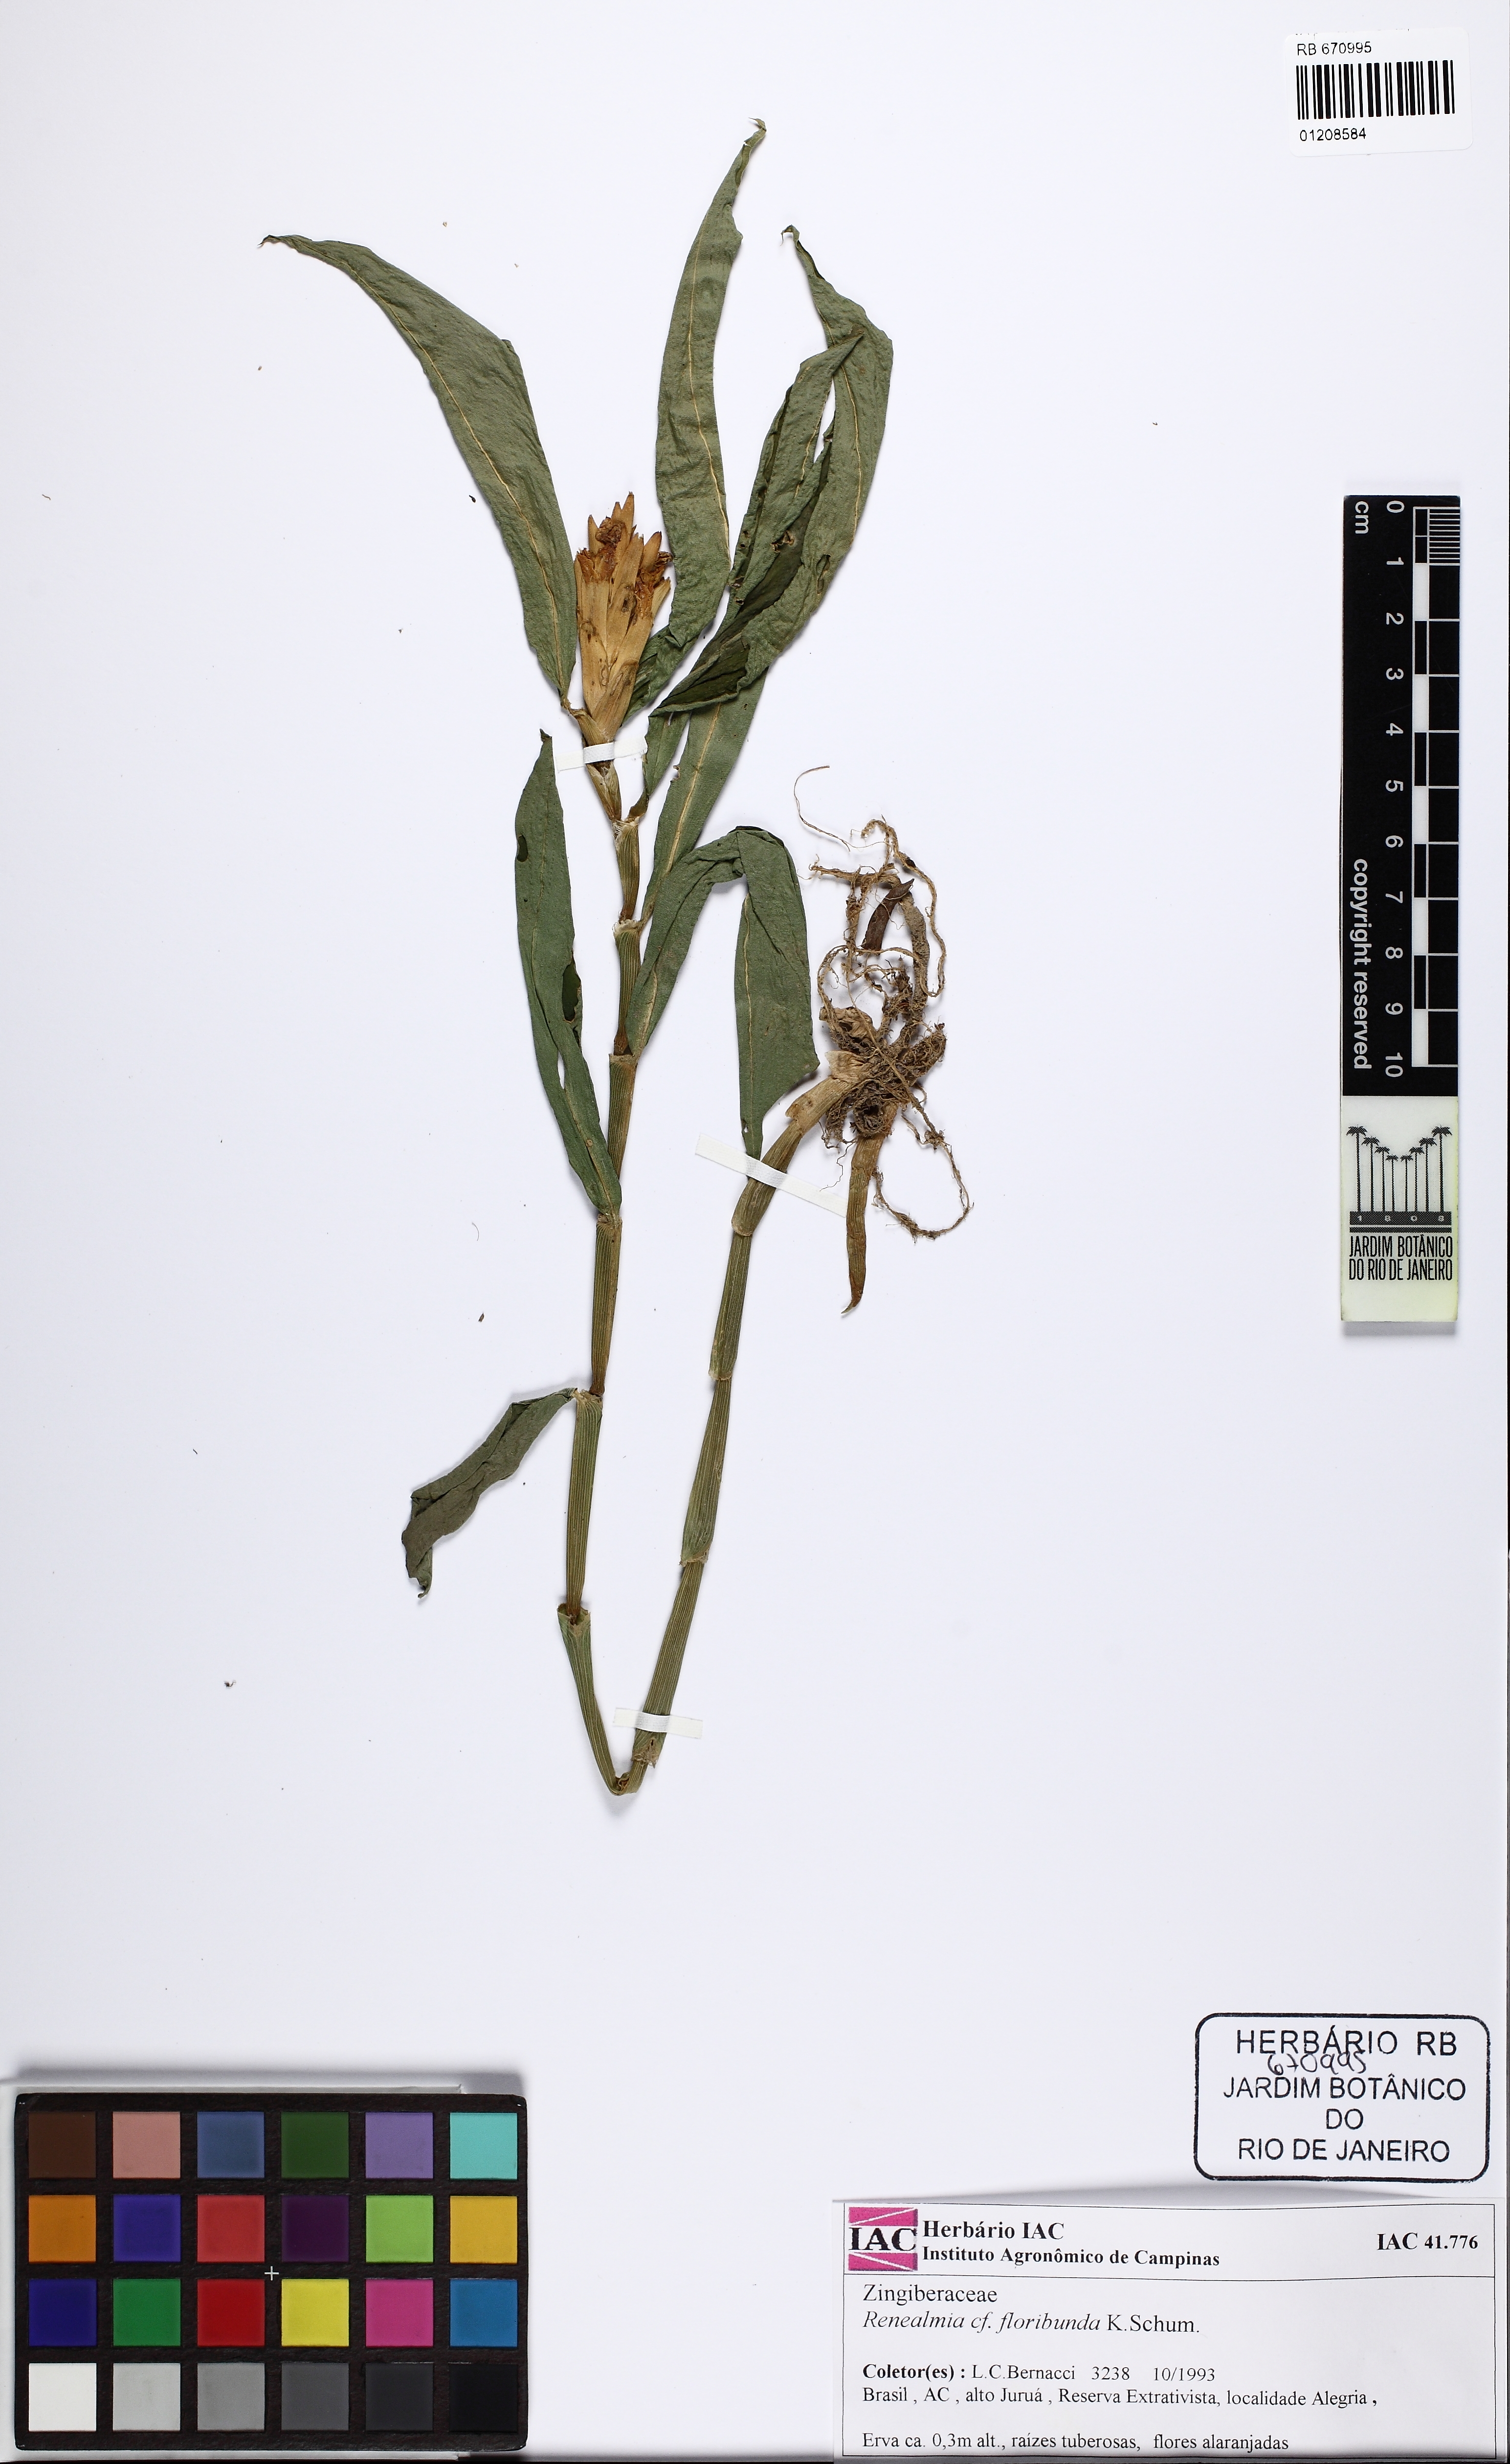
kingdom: Plantae
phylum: Tracheophyta
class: Liliopsida
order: Zingiberales
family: Zingiberaceae
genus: Renealmia
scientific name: Renealmia floribunda
